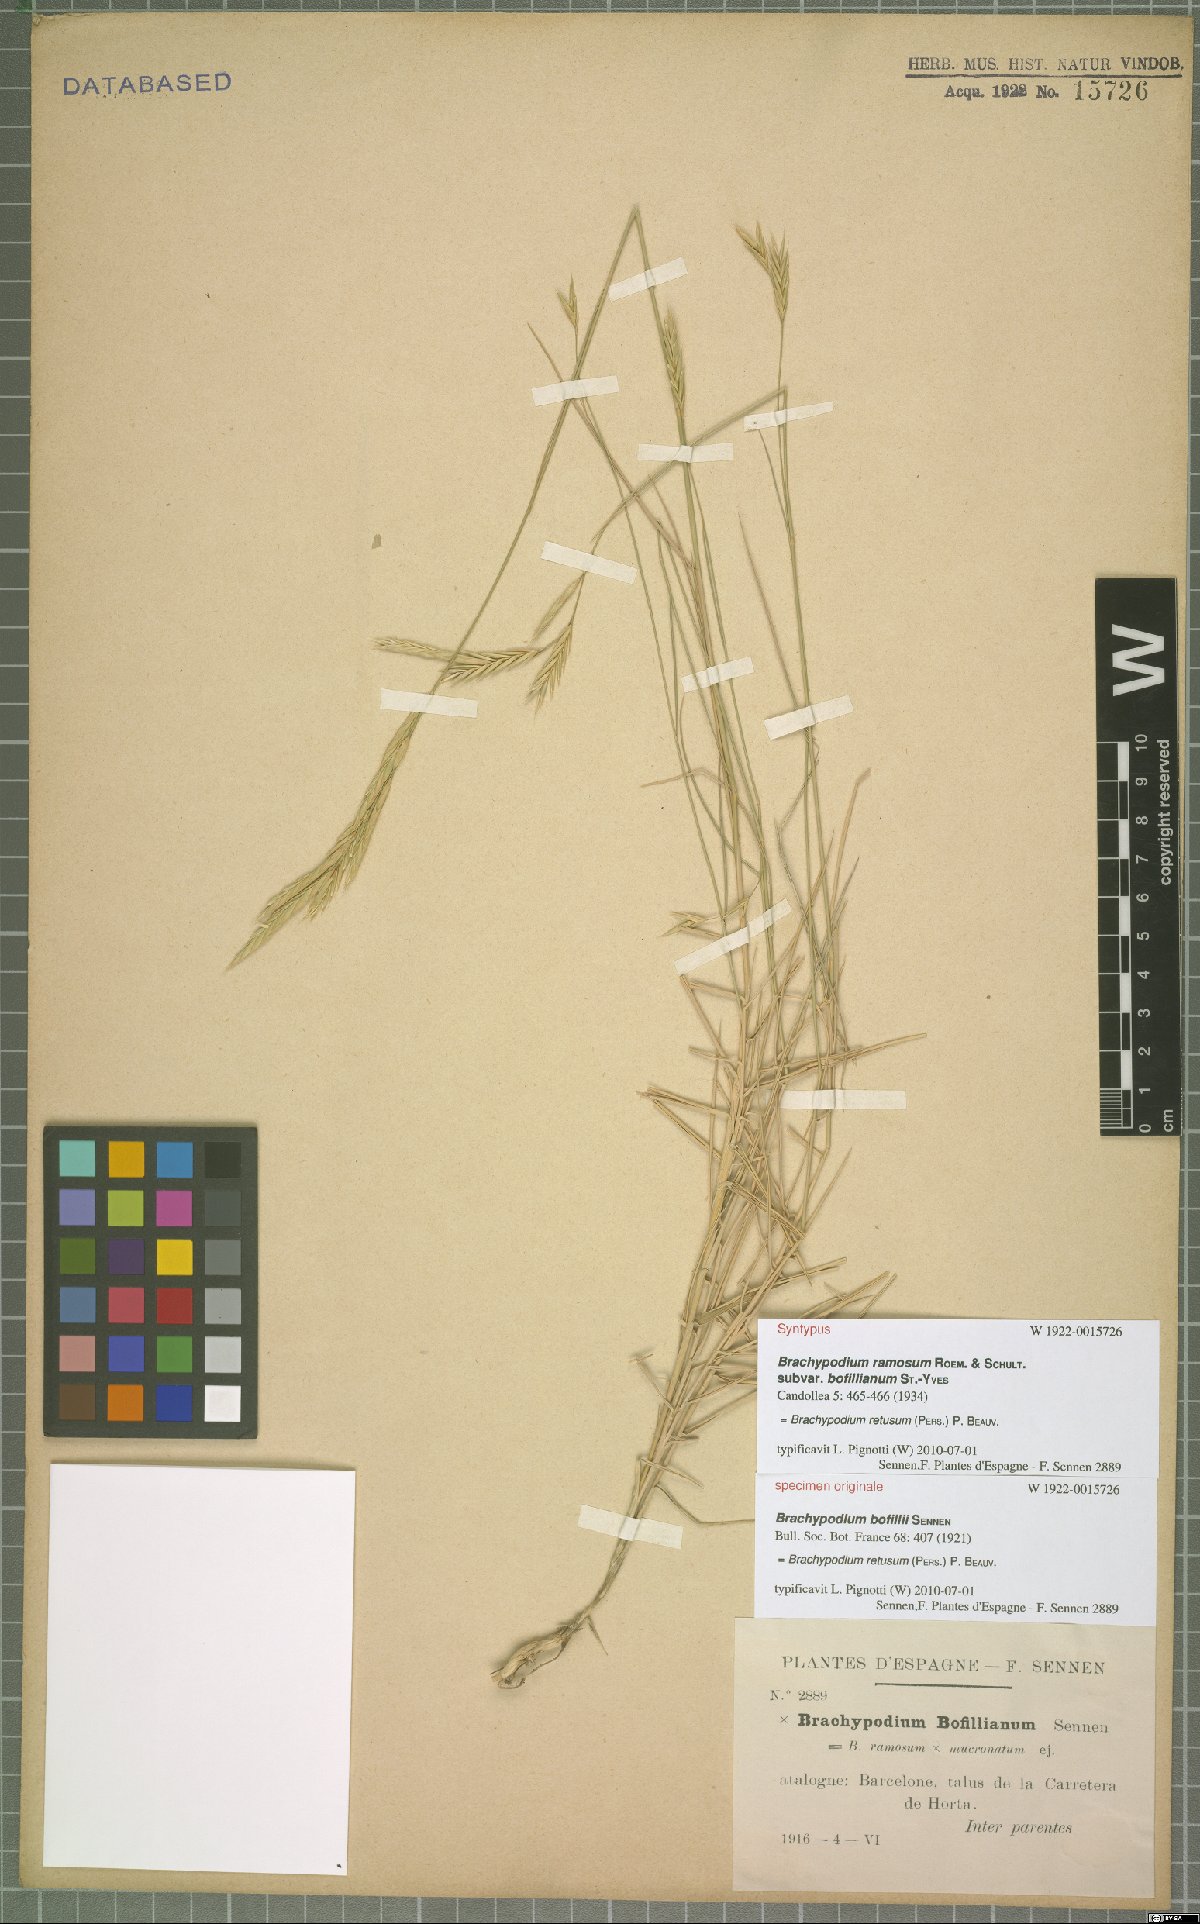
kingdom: Plantae
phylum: Tracheophyta
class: Liliopsida
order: Poales
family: Poaceae
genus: Brachypodium
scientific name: Brachypodium retusum
